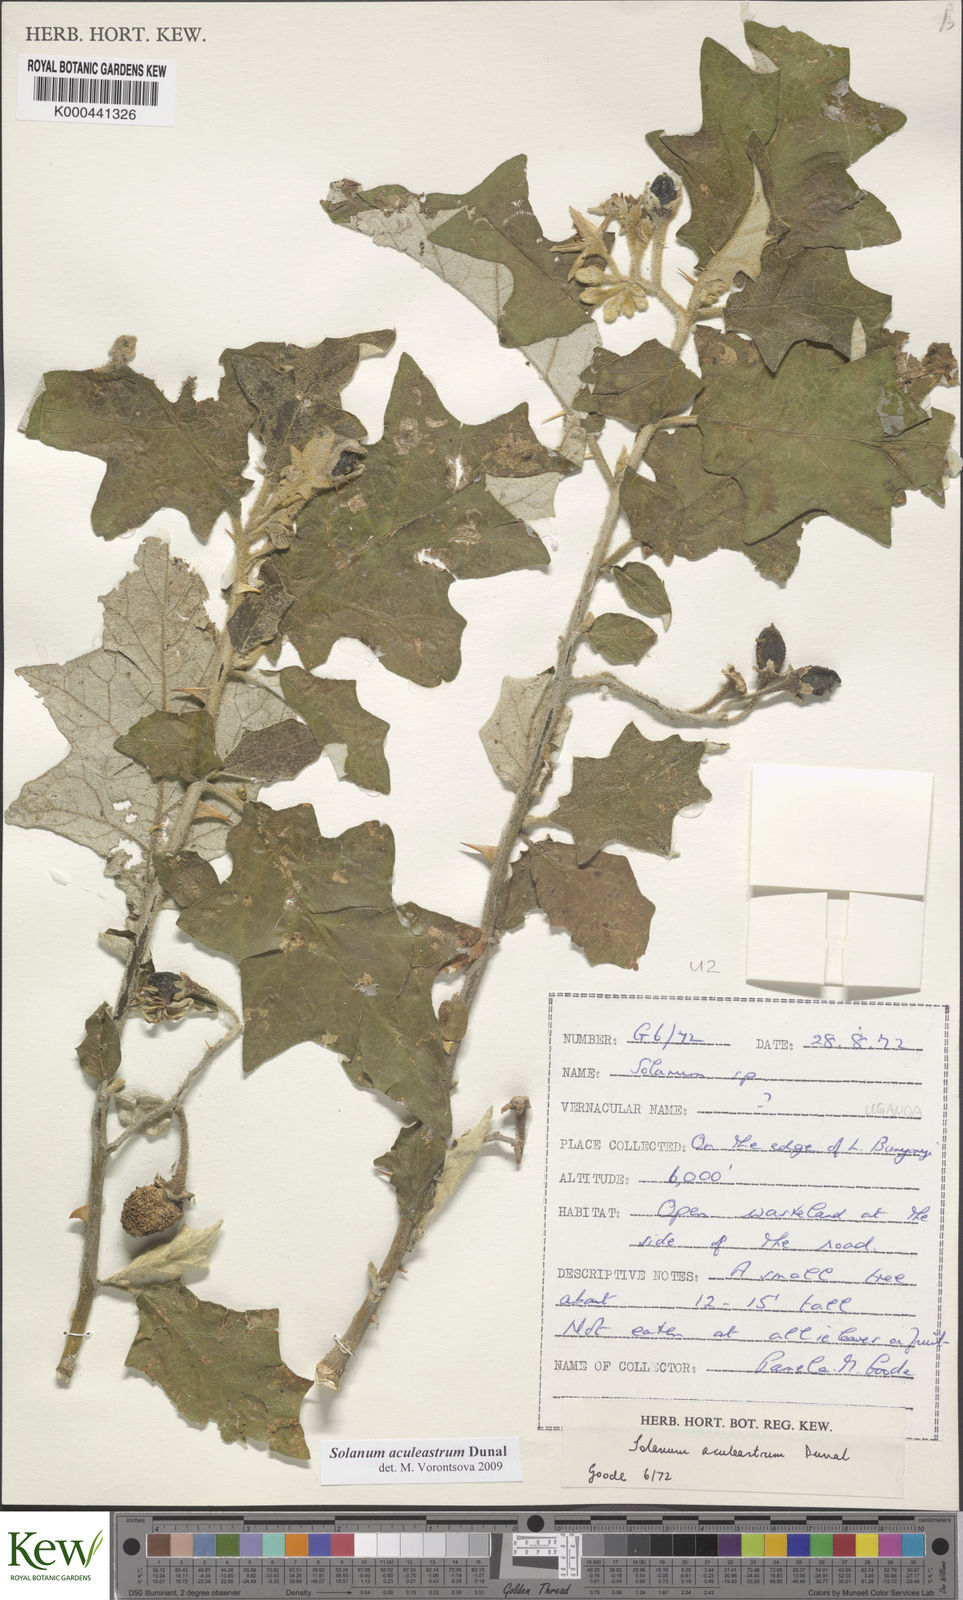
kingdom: Plantae
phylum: Tracheophyta
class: Magnoliopsida
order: Solanales
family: Solanaceae
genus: Solanum
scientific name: Solanum aculeastrum
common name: Goat bitter-apple
